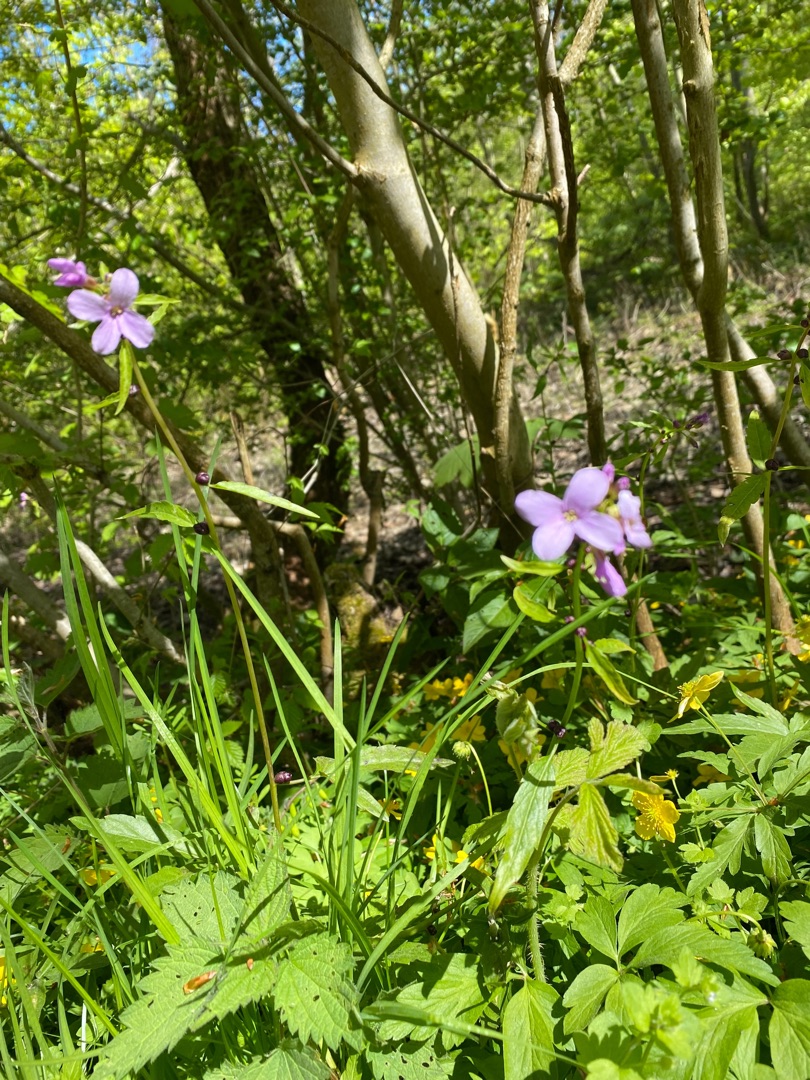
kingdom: Plantae
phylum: Tracheophyta
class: Magnoliopsida
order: Brassicales
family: Brassicaceae
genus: Cardamine
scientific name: Cardamine bulbifera
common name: Tandrod
